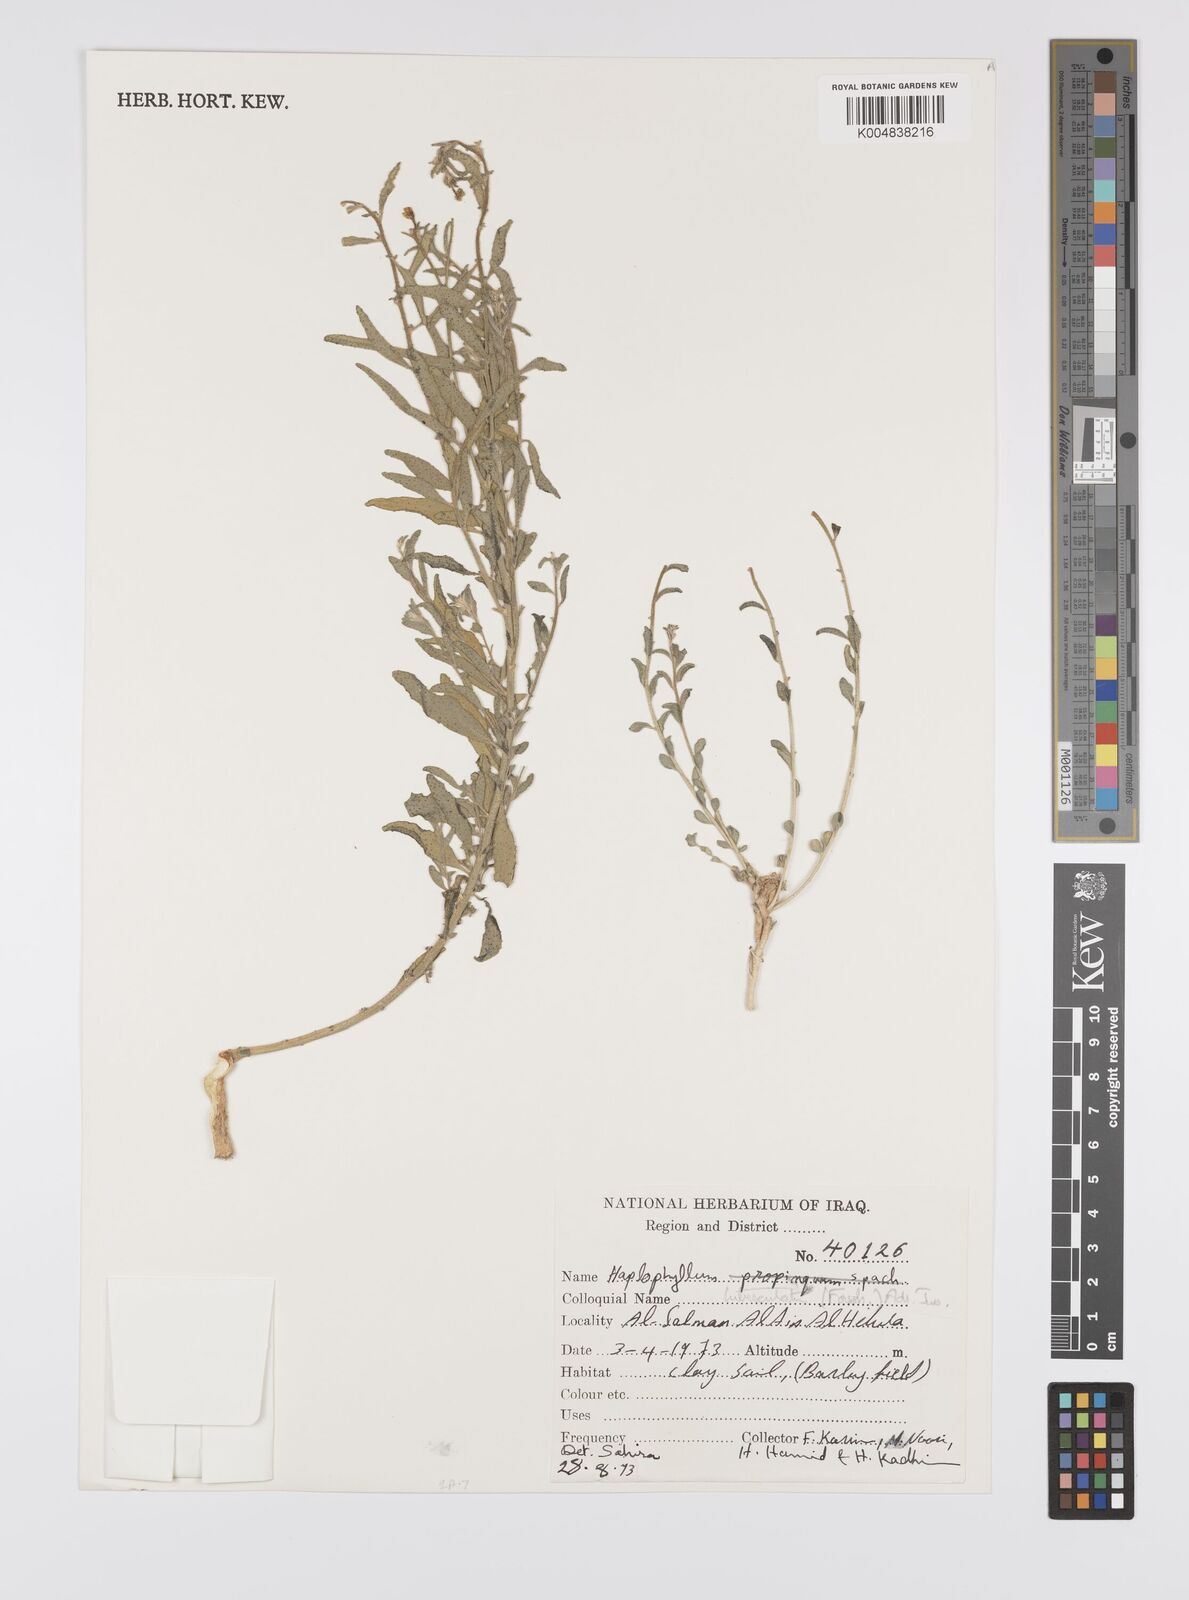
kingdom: Plantae
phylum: Tracheophyta
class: Magnoliopsida
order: Sapindales
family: Rutaceae
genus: Haplophyllum
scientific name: Haplophyllum tuberculatum
